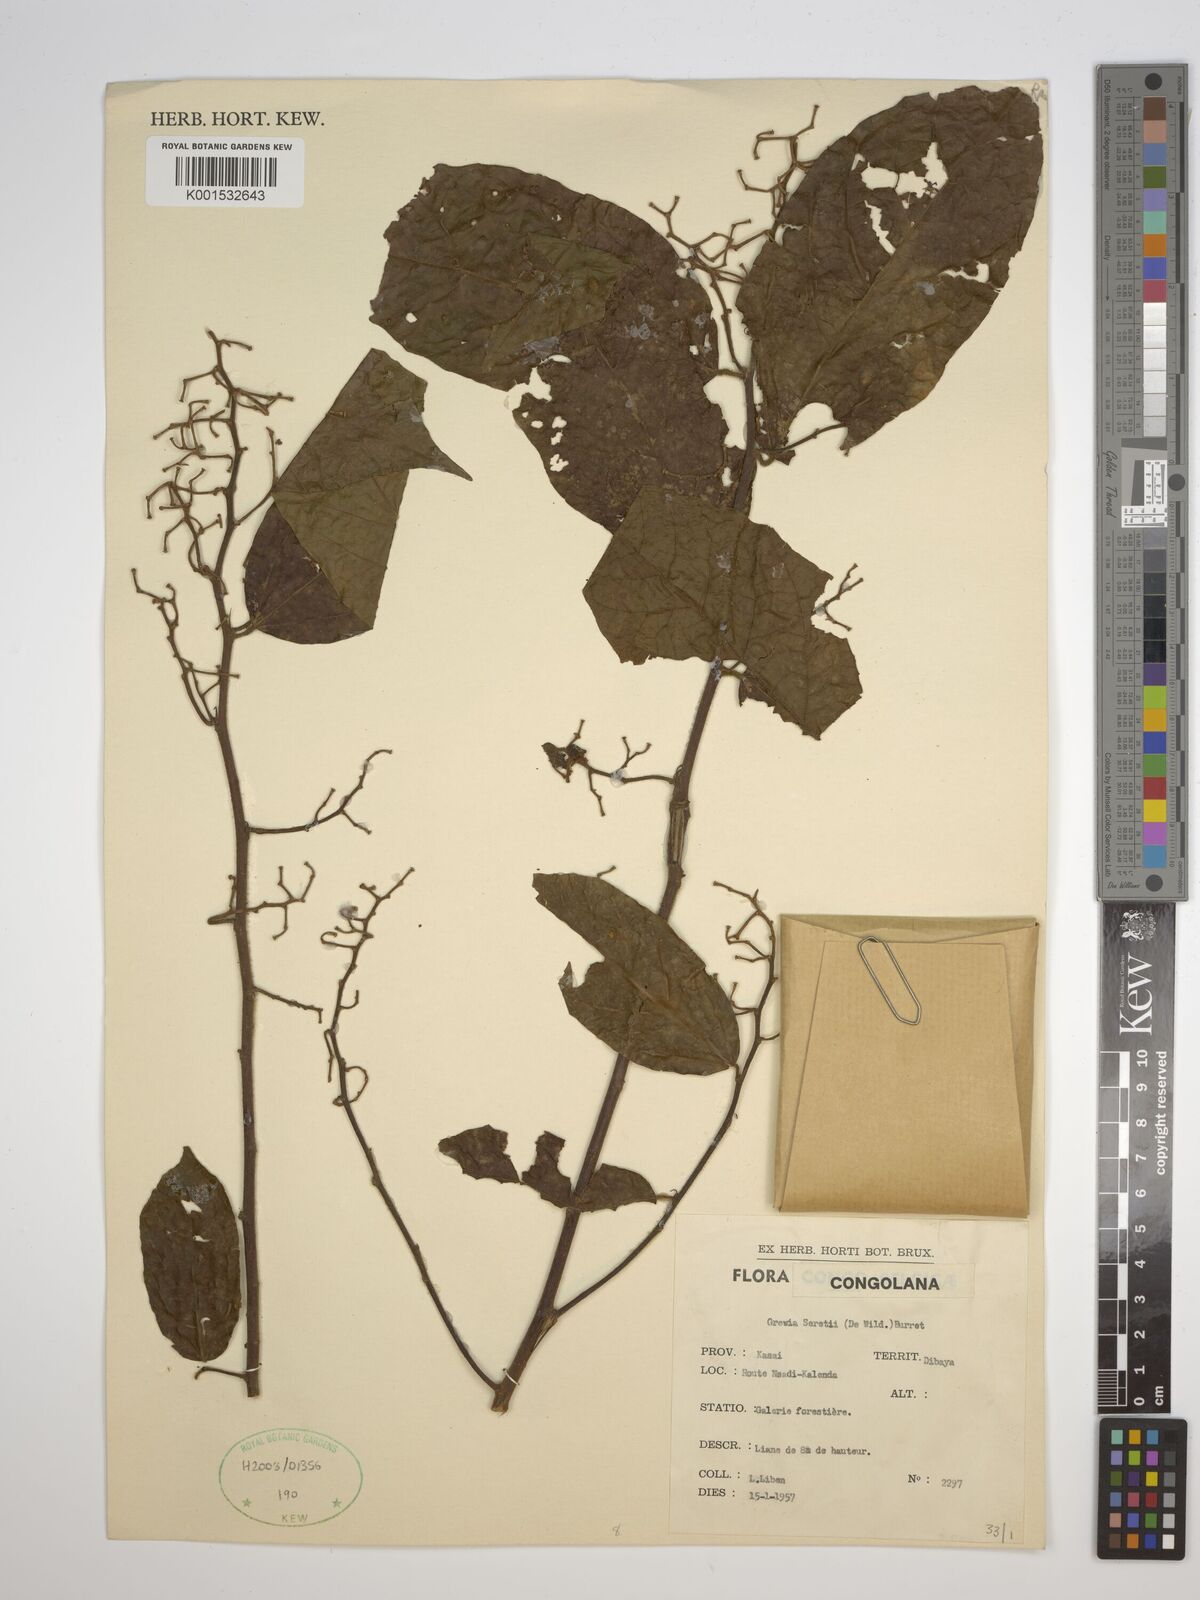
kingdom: Plantae
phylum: Tracheophyta
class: Magnoliopsida
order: Malvales
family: Malvaceae
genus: Microcos
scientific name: Microcos seretii
